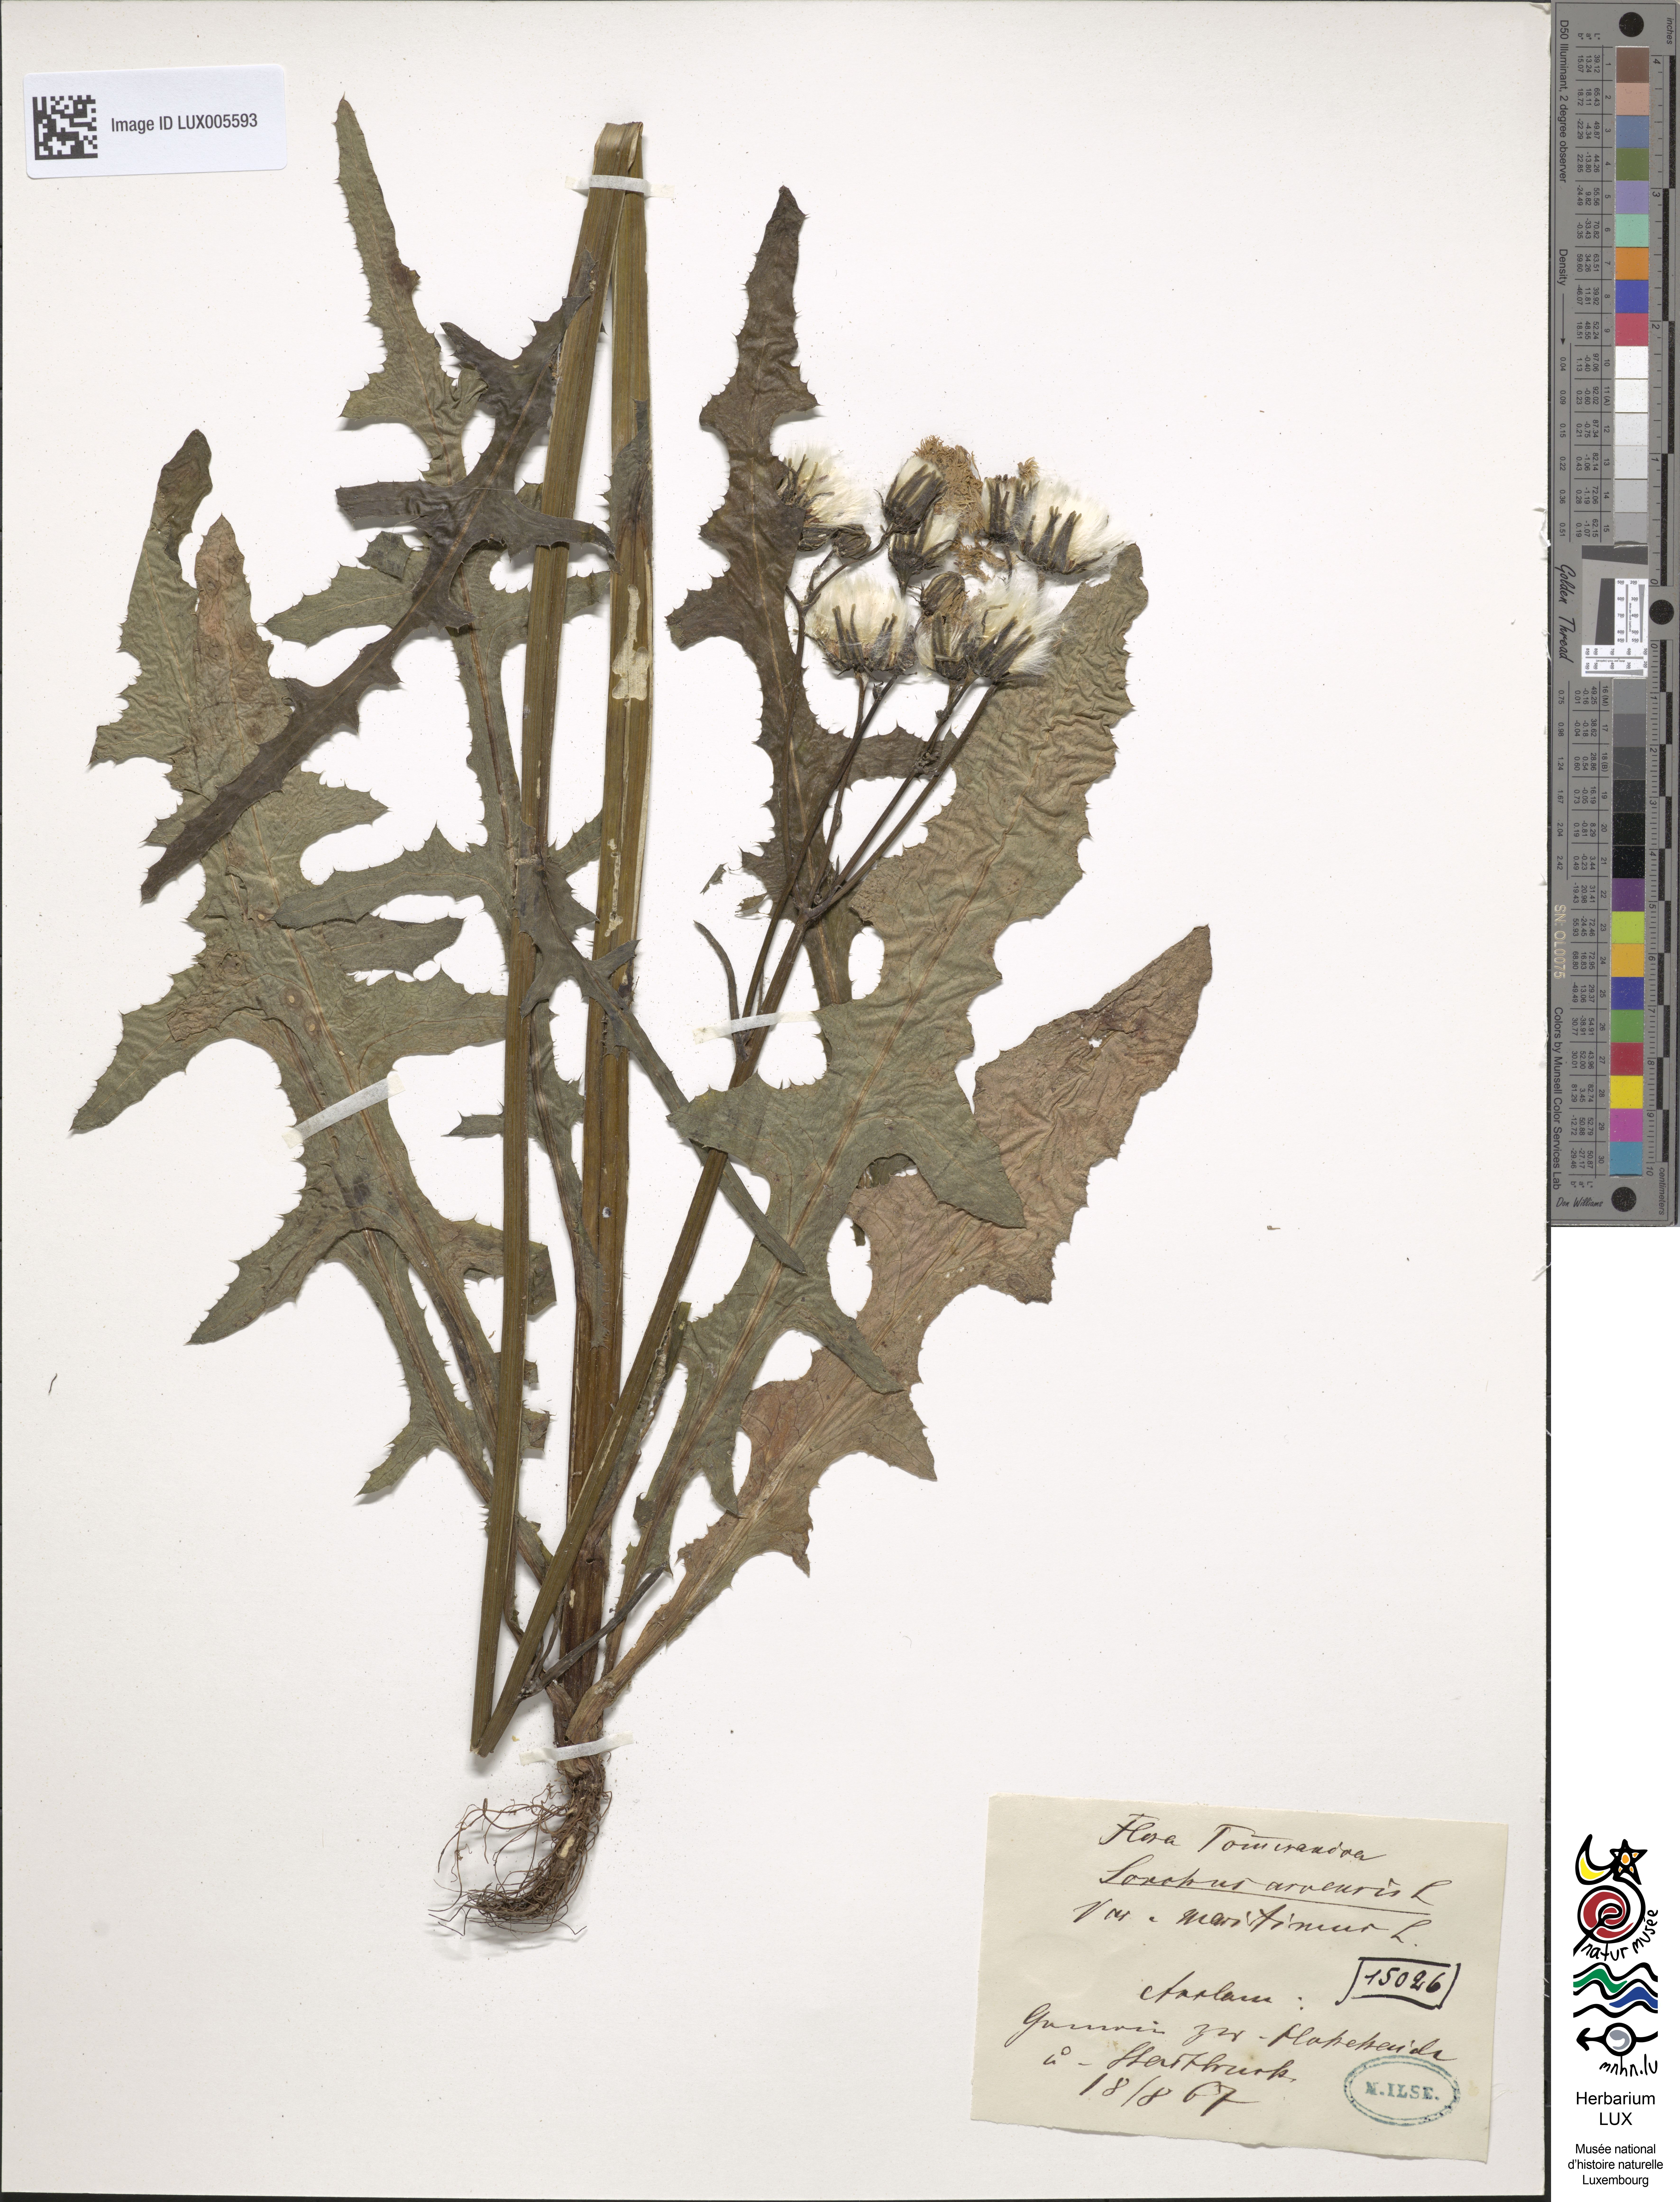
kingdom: Plantae
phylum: Tracheophyta
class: Magnoliopsida
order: Asterales
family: Asteraceae
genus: Sonchus
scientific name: Sonchus maritimus
